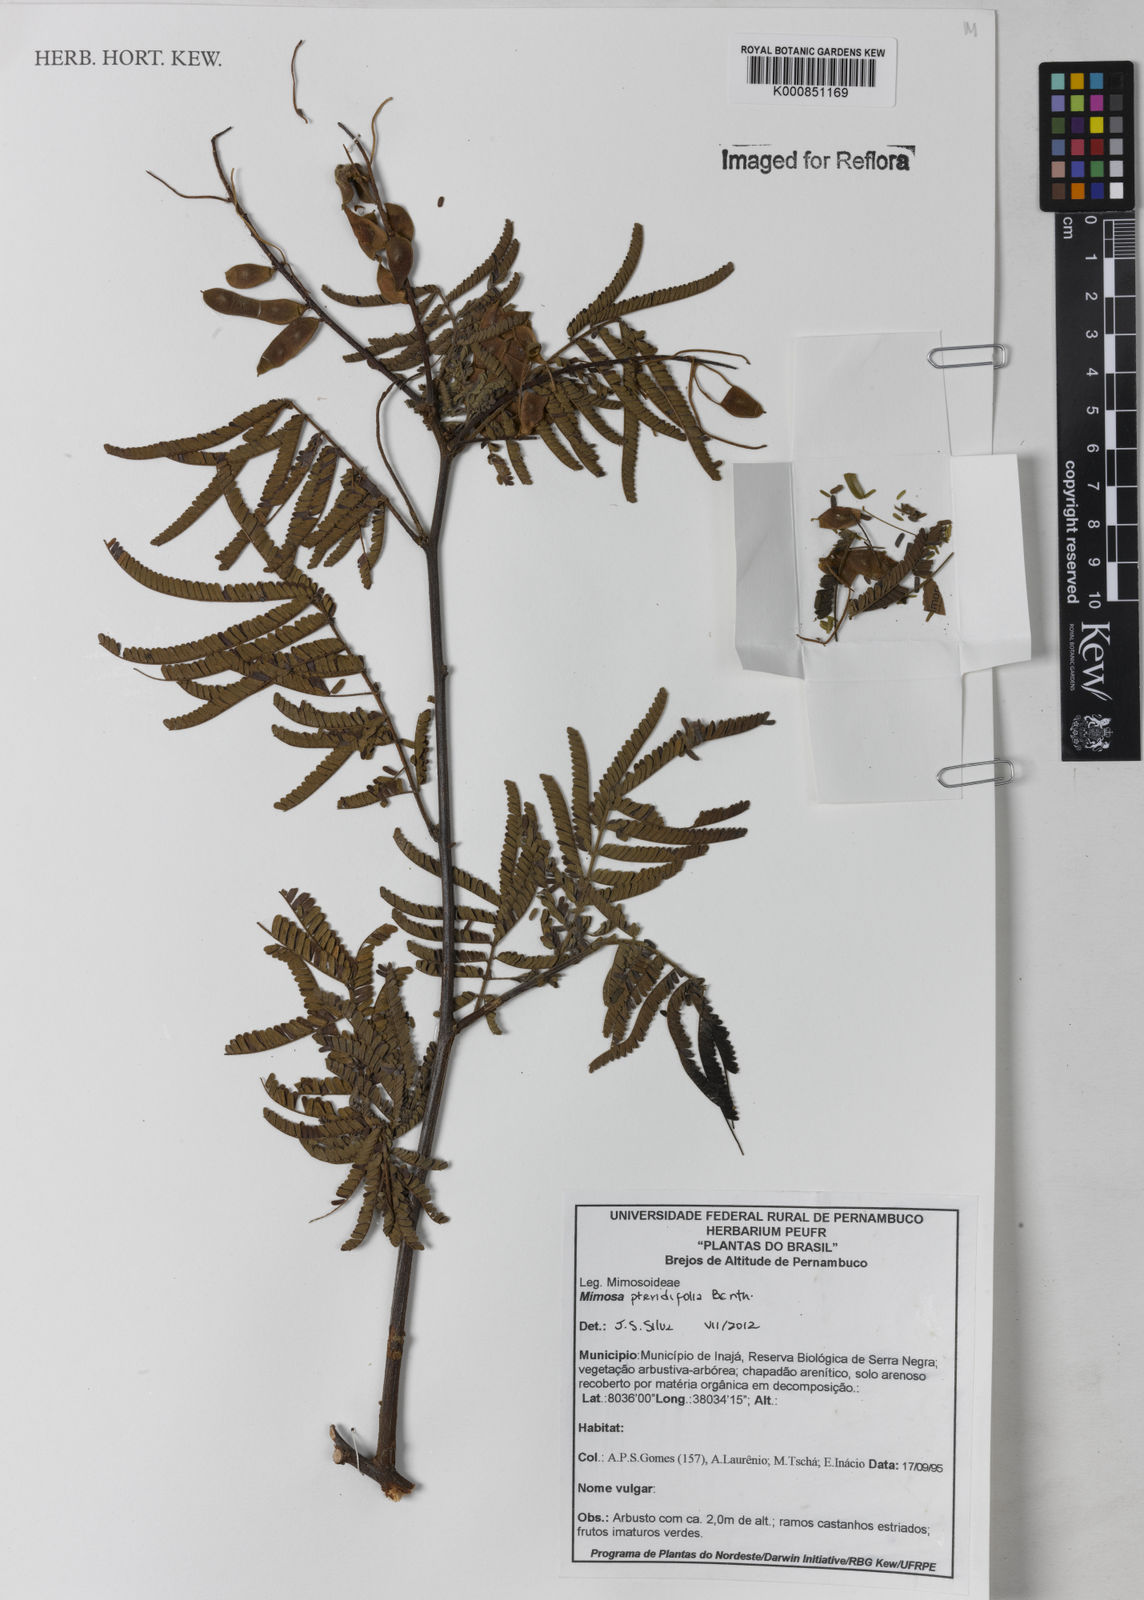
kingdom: Plantae
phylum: Tracheophyta
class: Magnoliopsida
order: Fabales
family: Fabaceae
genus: Mimosa
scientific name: Mimosa pteridifolia
